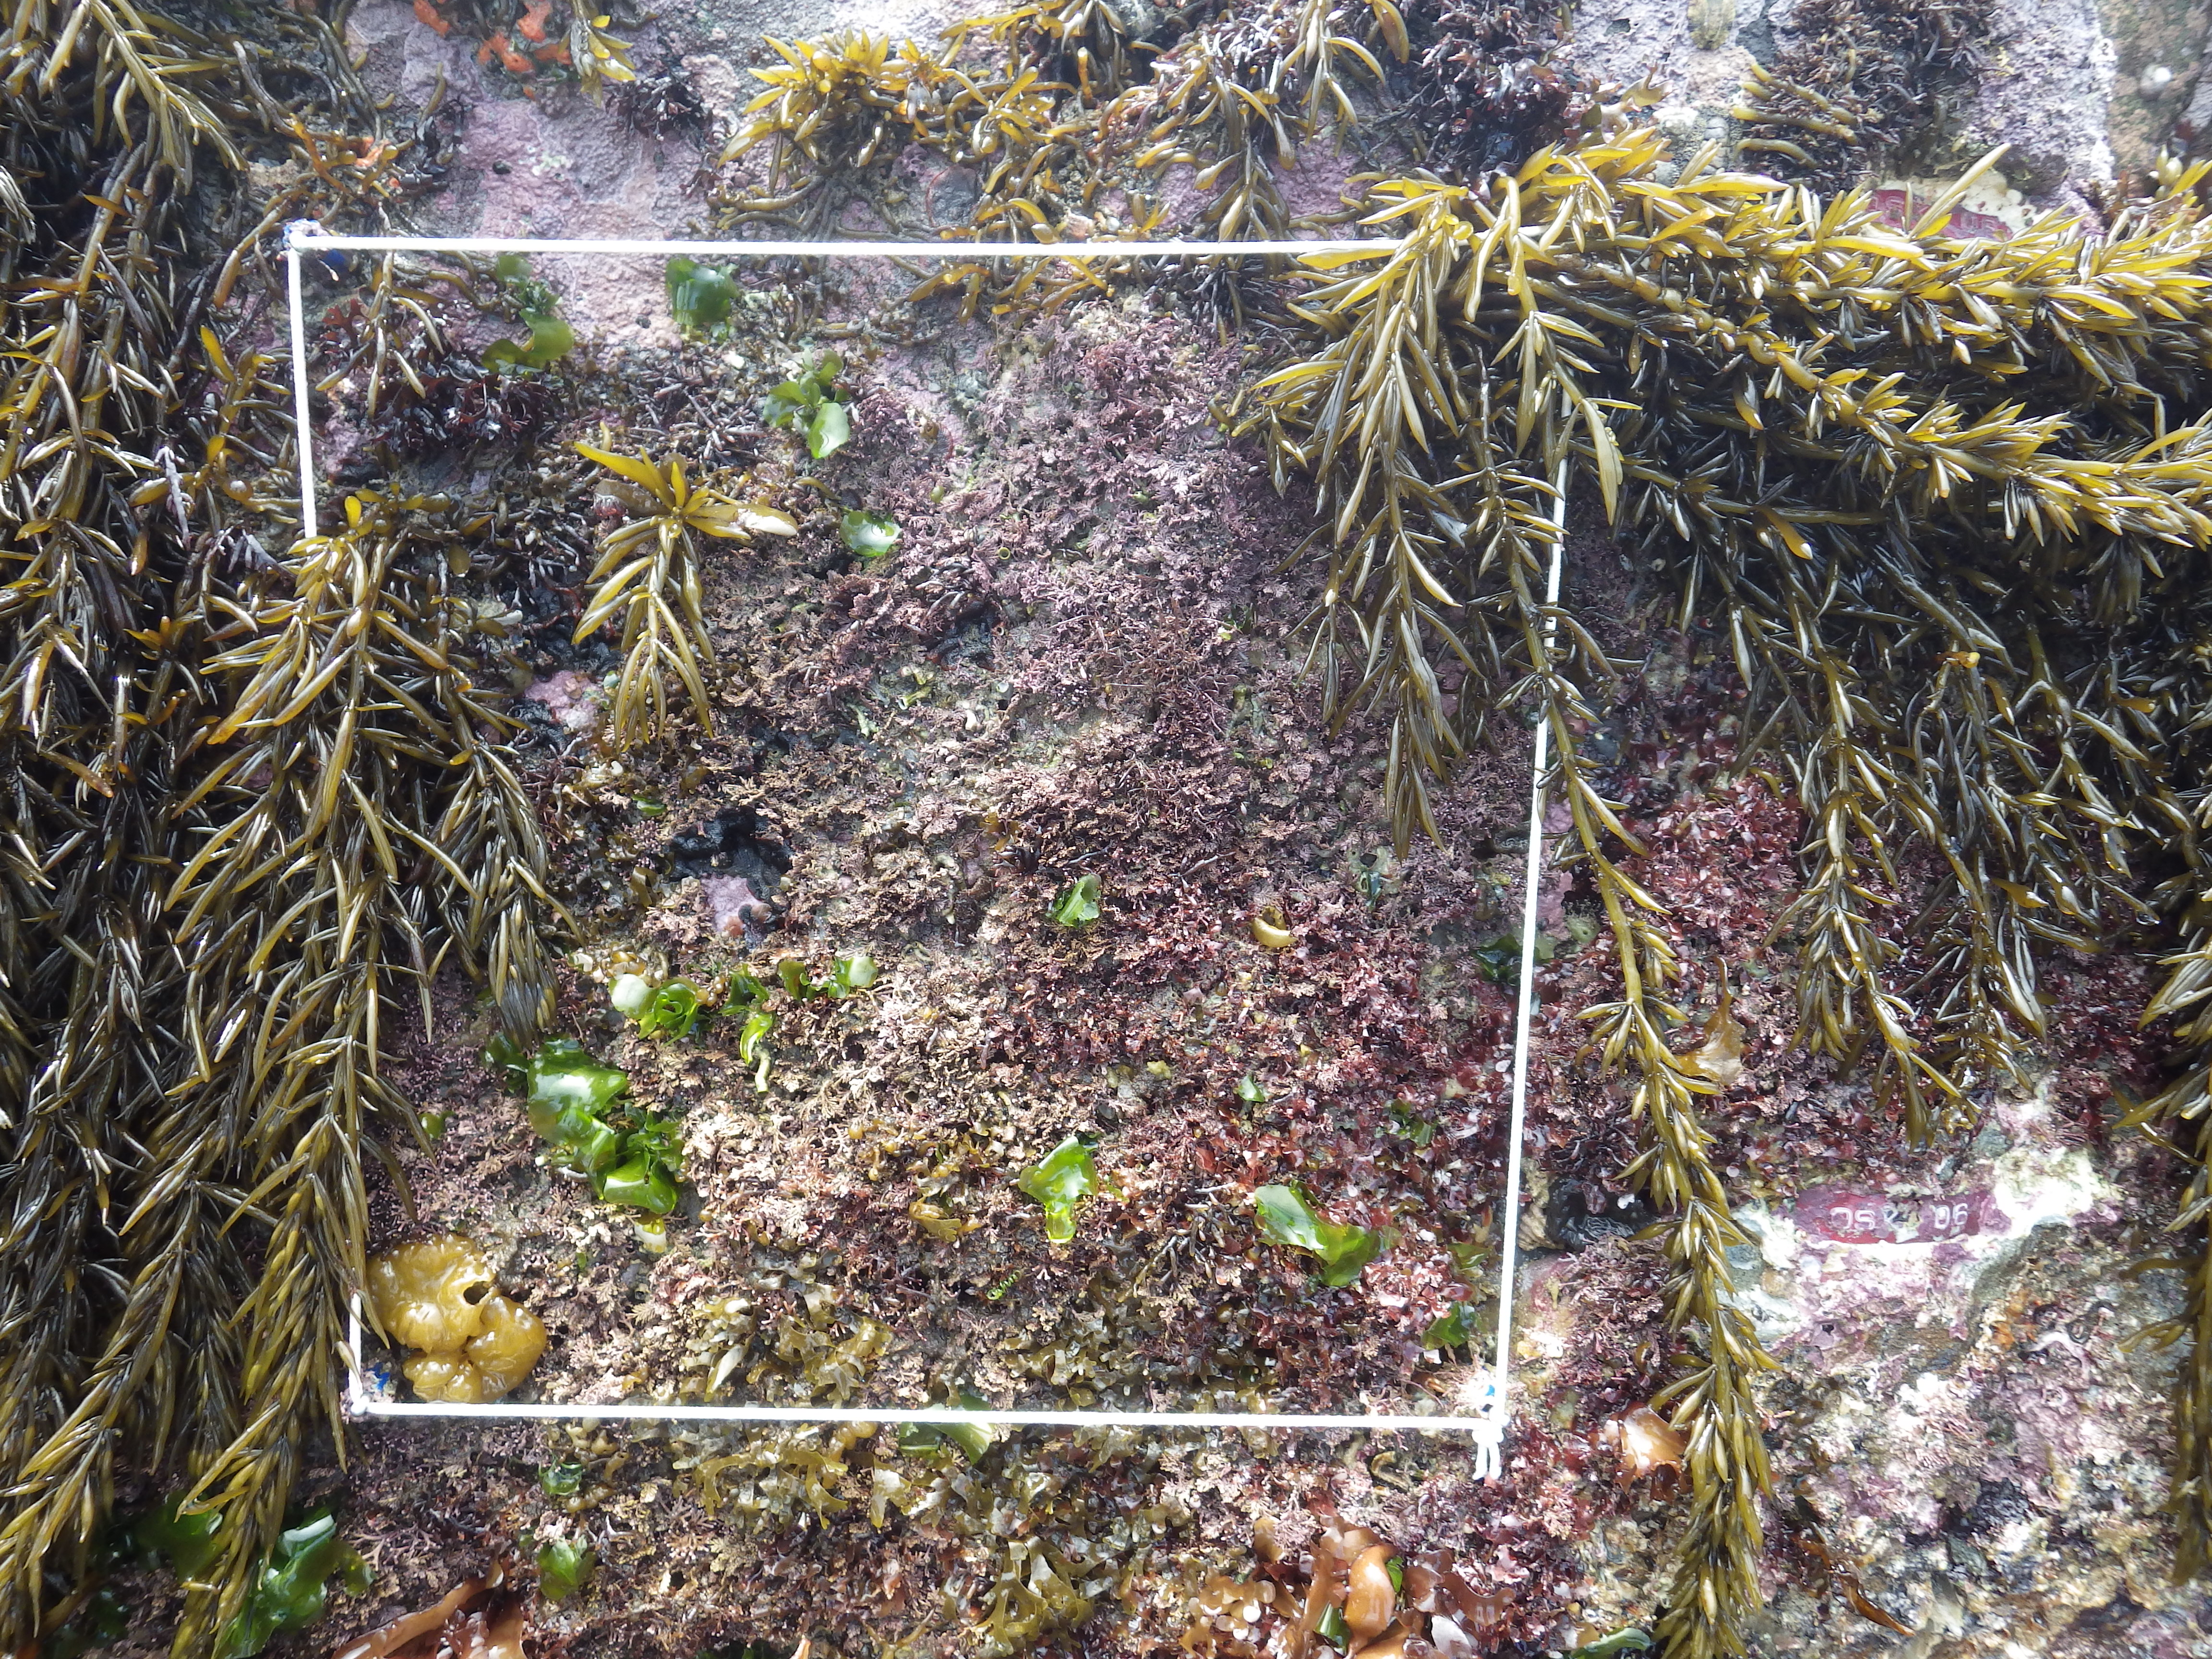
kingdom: Chromista
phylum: Ochrophyta
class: Phaeophyceae
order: Fucales
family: Sargassaceae
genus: Sargassum
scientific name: Sargassum fusiforme
